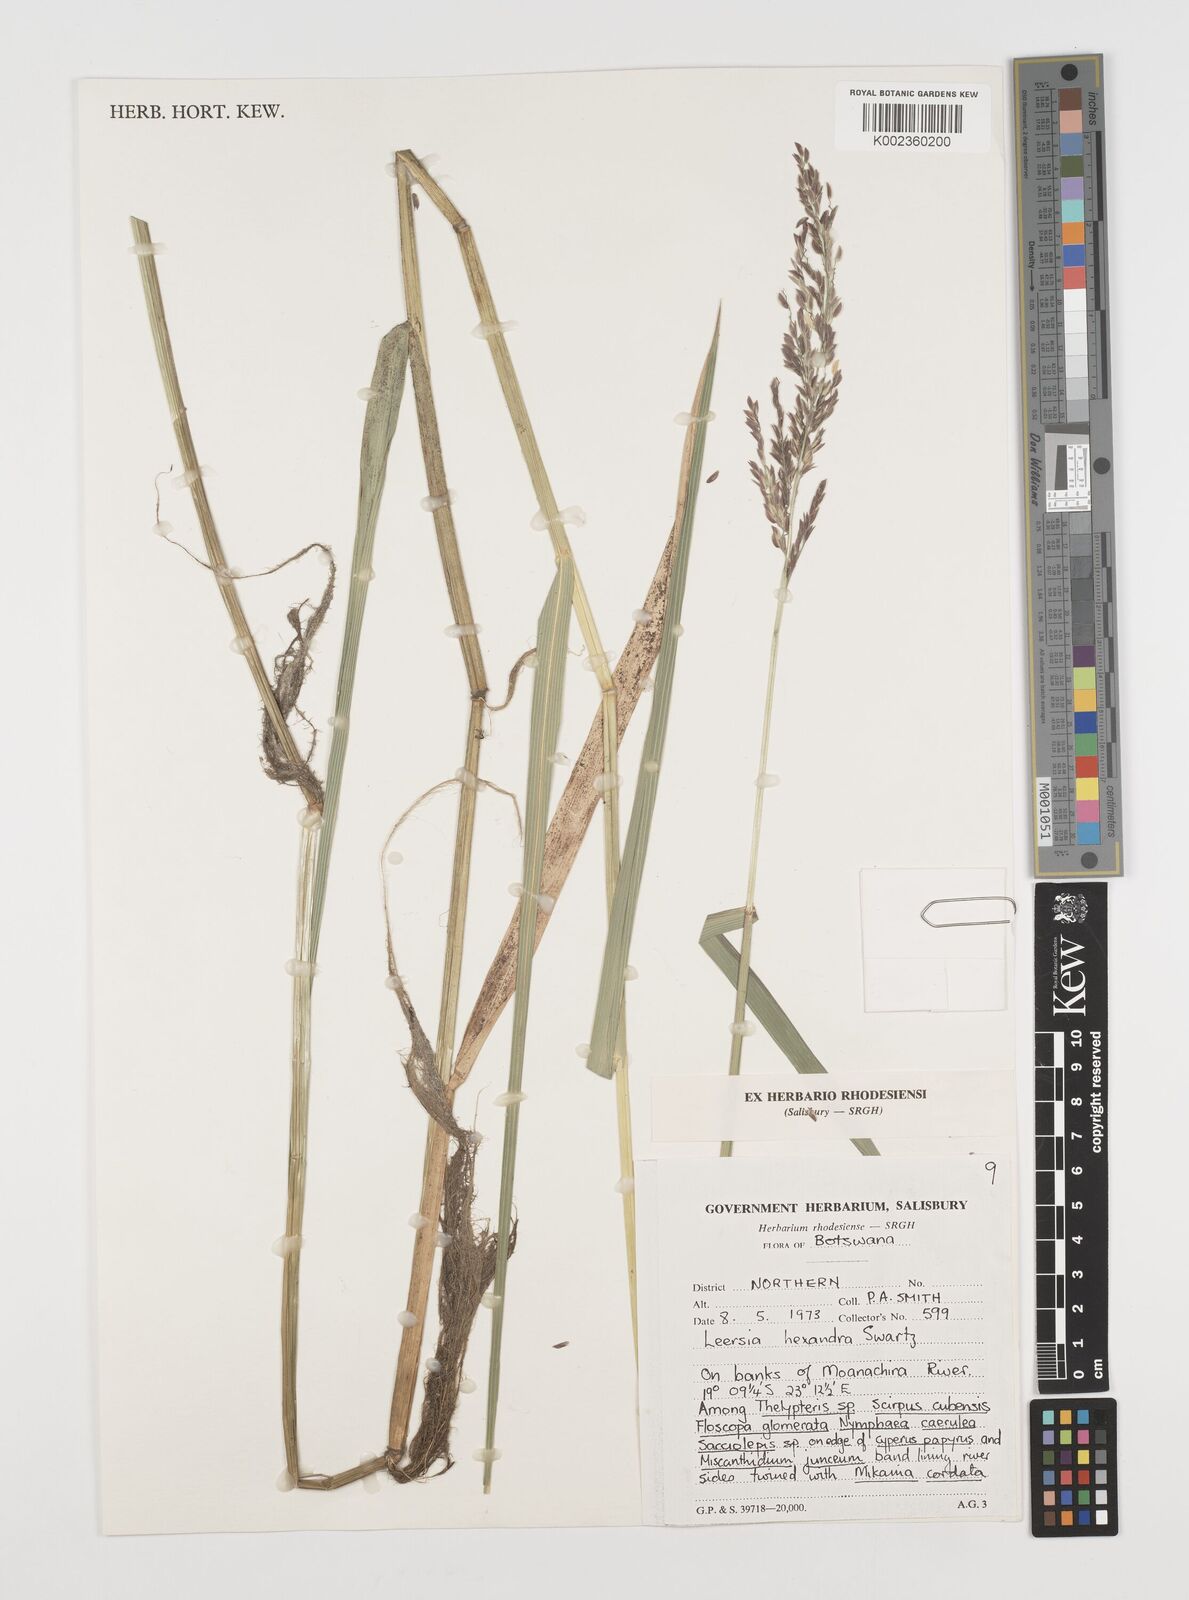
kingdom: Plantae
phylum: Tracheophyta
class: Liliopsida
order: Poales
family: Poaceae
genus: Leersia
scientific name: Leersia hexandra
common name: Southern cut grass
